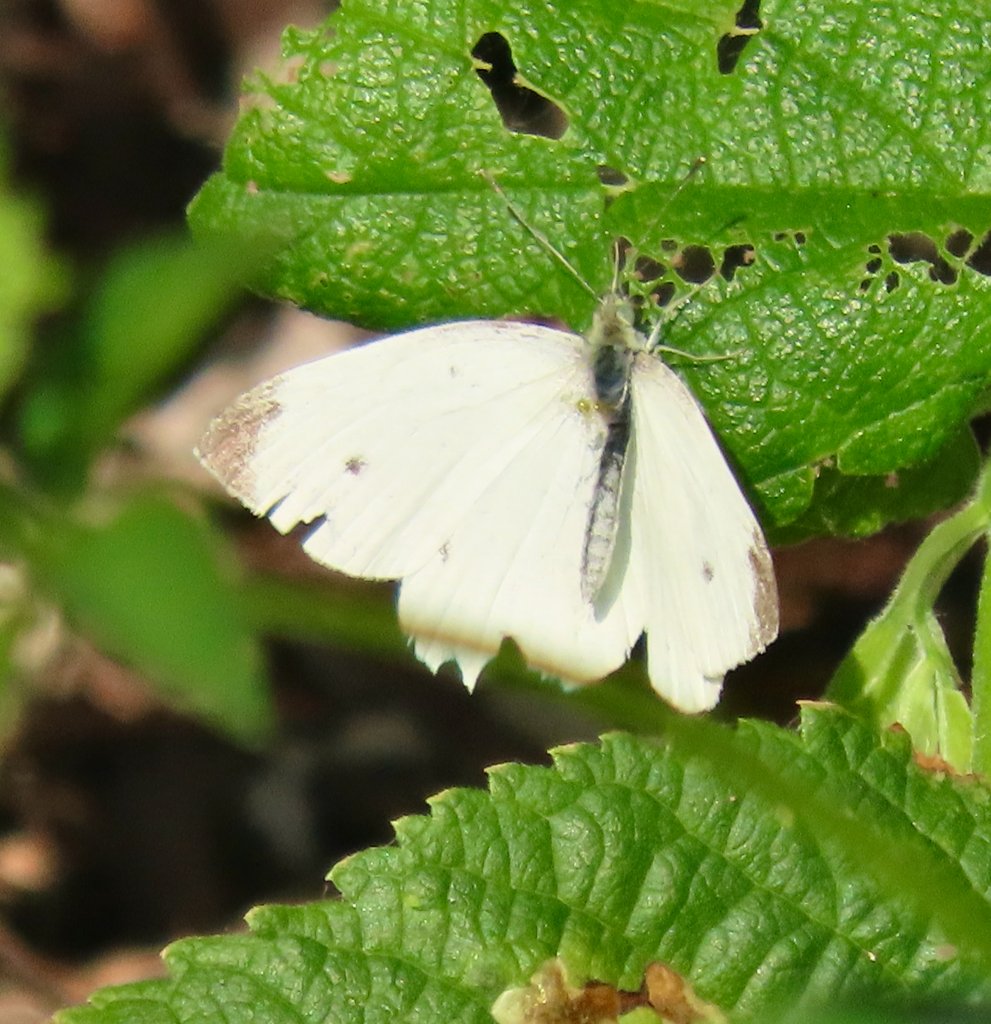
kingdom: Animalia
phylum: Arthropoda
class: Insecta
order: Lepidoptera
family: Pieridae
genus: Pieris
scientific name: Pieris rapae
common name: Cabbage White
